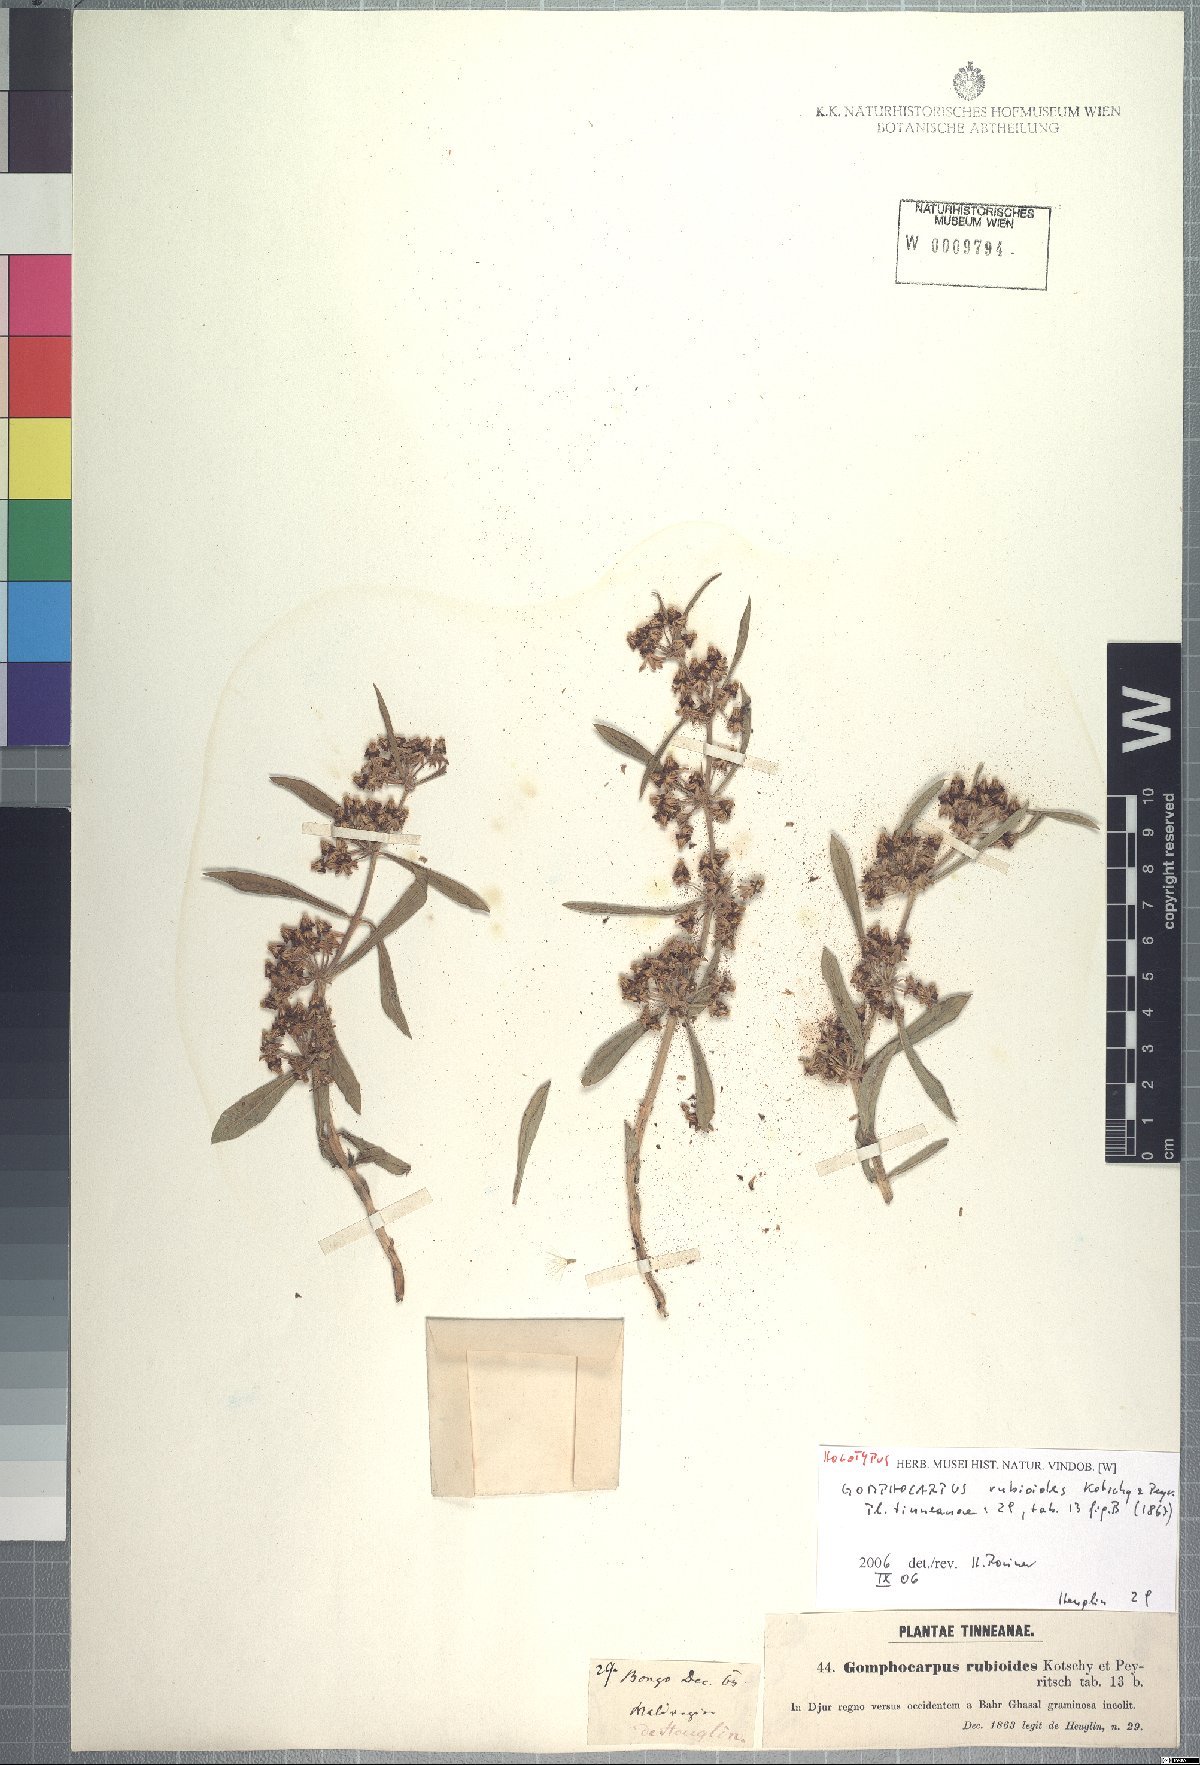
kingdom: Plantae
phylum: Tracheophyta
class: Magnoliopsida
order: Gentianales
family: Apocynaceae
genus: Xysmalobium
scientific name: Xysmalobium heudelotianum
